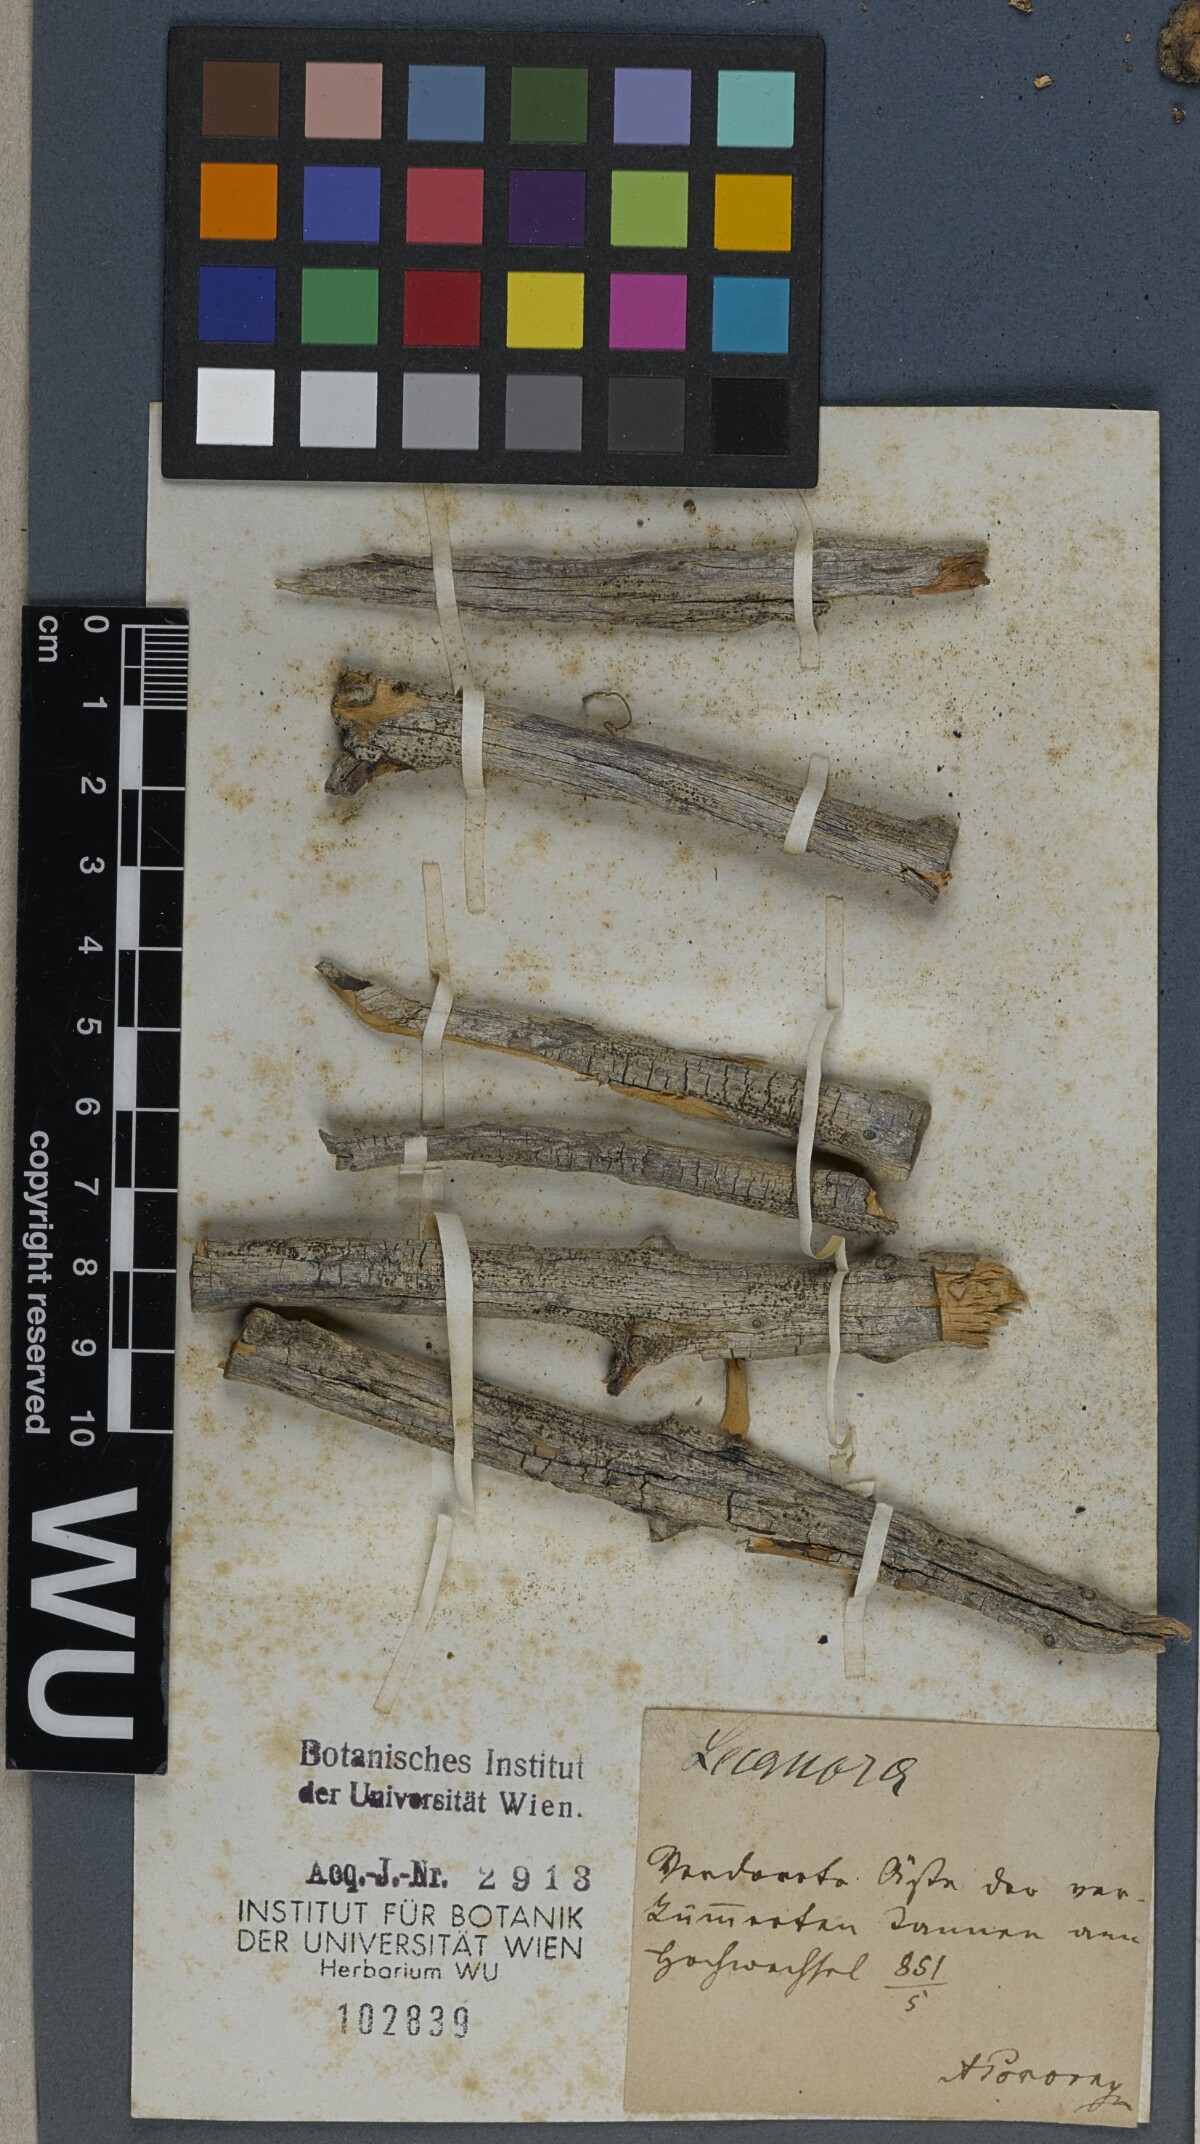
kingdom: Fungi
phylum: Ascomycota
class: Lecanoromycetes
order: Lecanorales
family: Lecanoraceae
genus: Lecanora
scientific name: Lecanora
